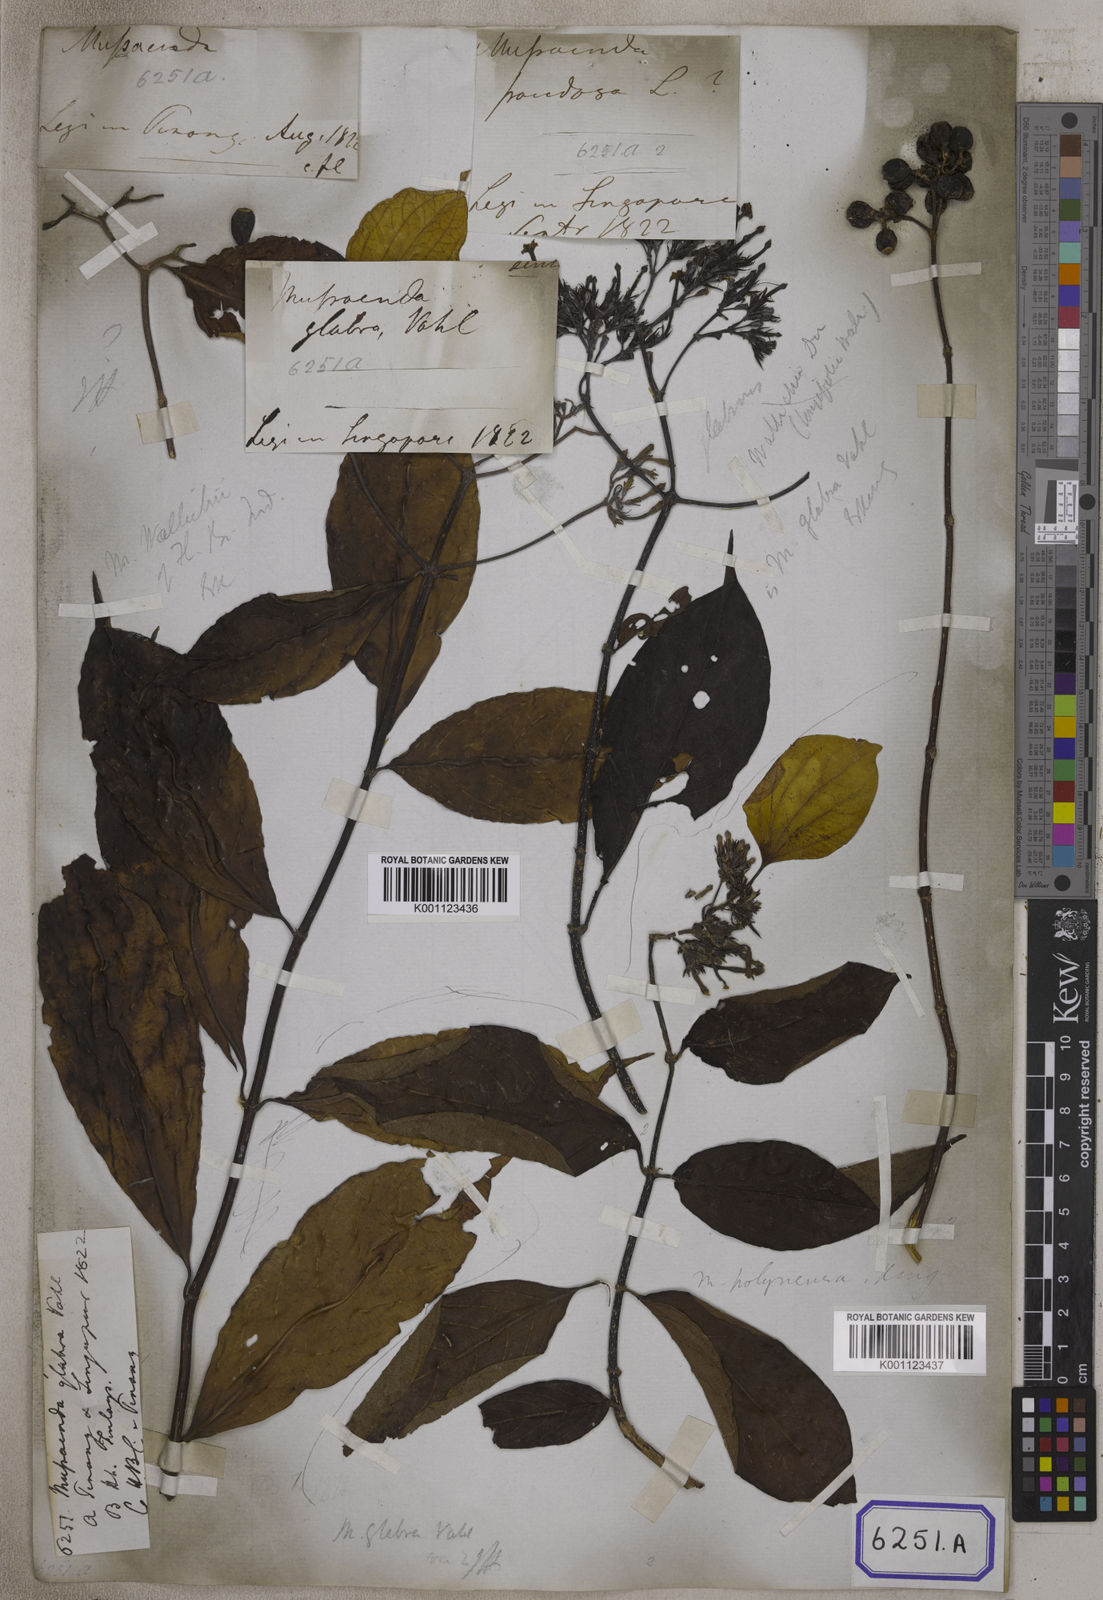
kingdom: Plantae
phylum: Tracheophyta
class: Magnoliopsida
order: Gentianales
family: Rubiaceae
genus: Mussaenda
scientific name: Mussaenda
